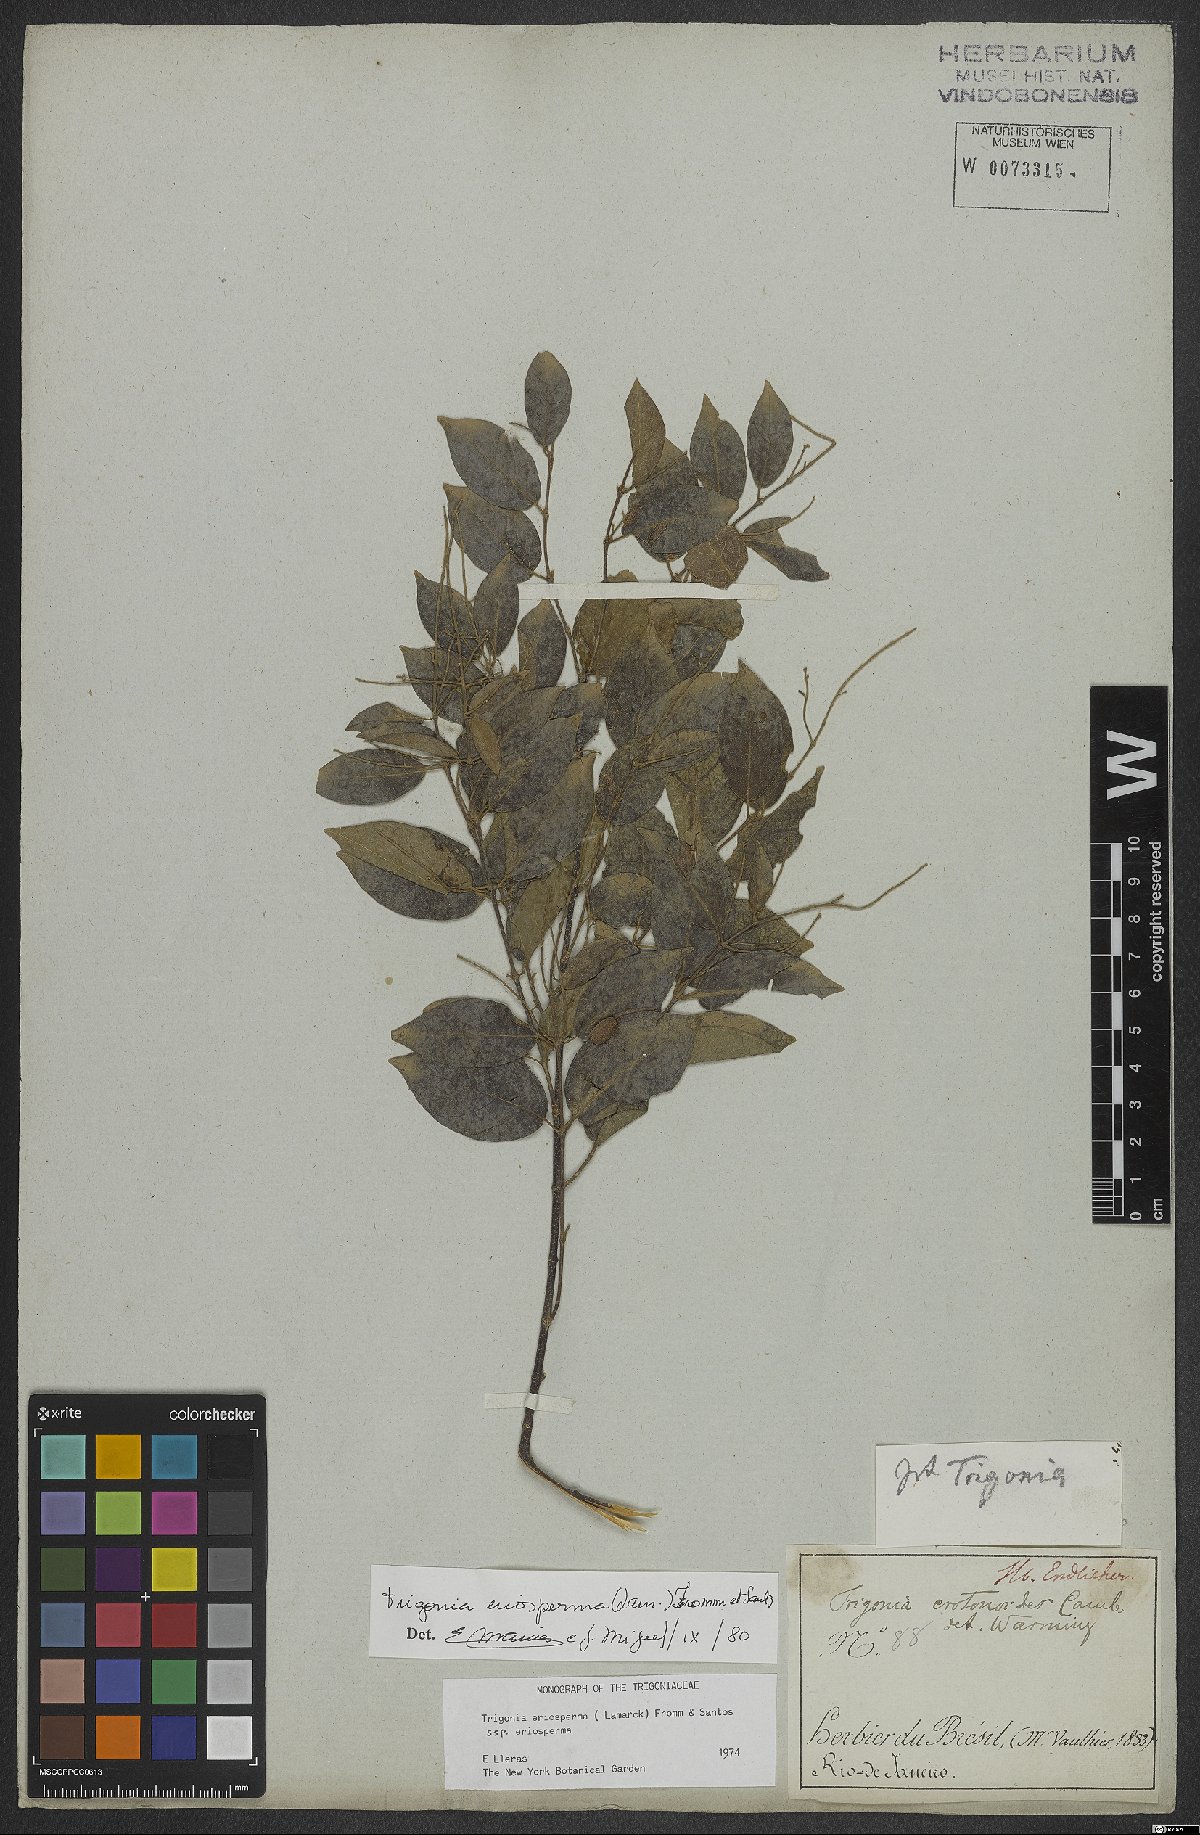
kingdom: Plantae
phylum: Tracheophyta
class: Magnoliopsida
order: Malpighiales
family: Trigoniaceae
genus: Trigonia
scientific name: Trigonia eriosperma
